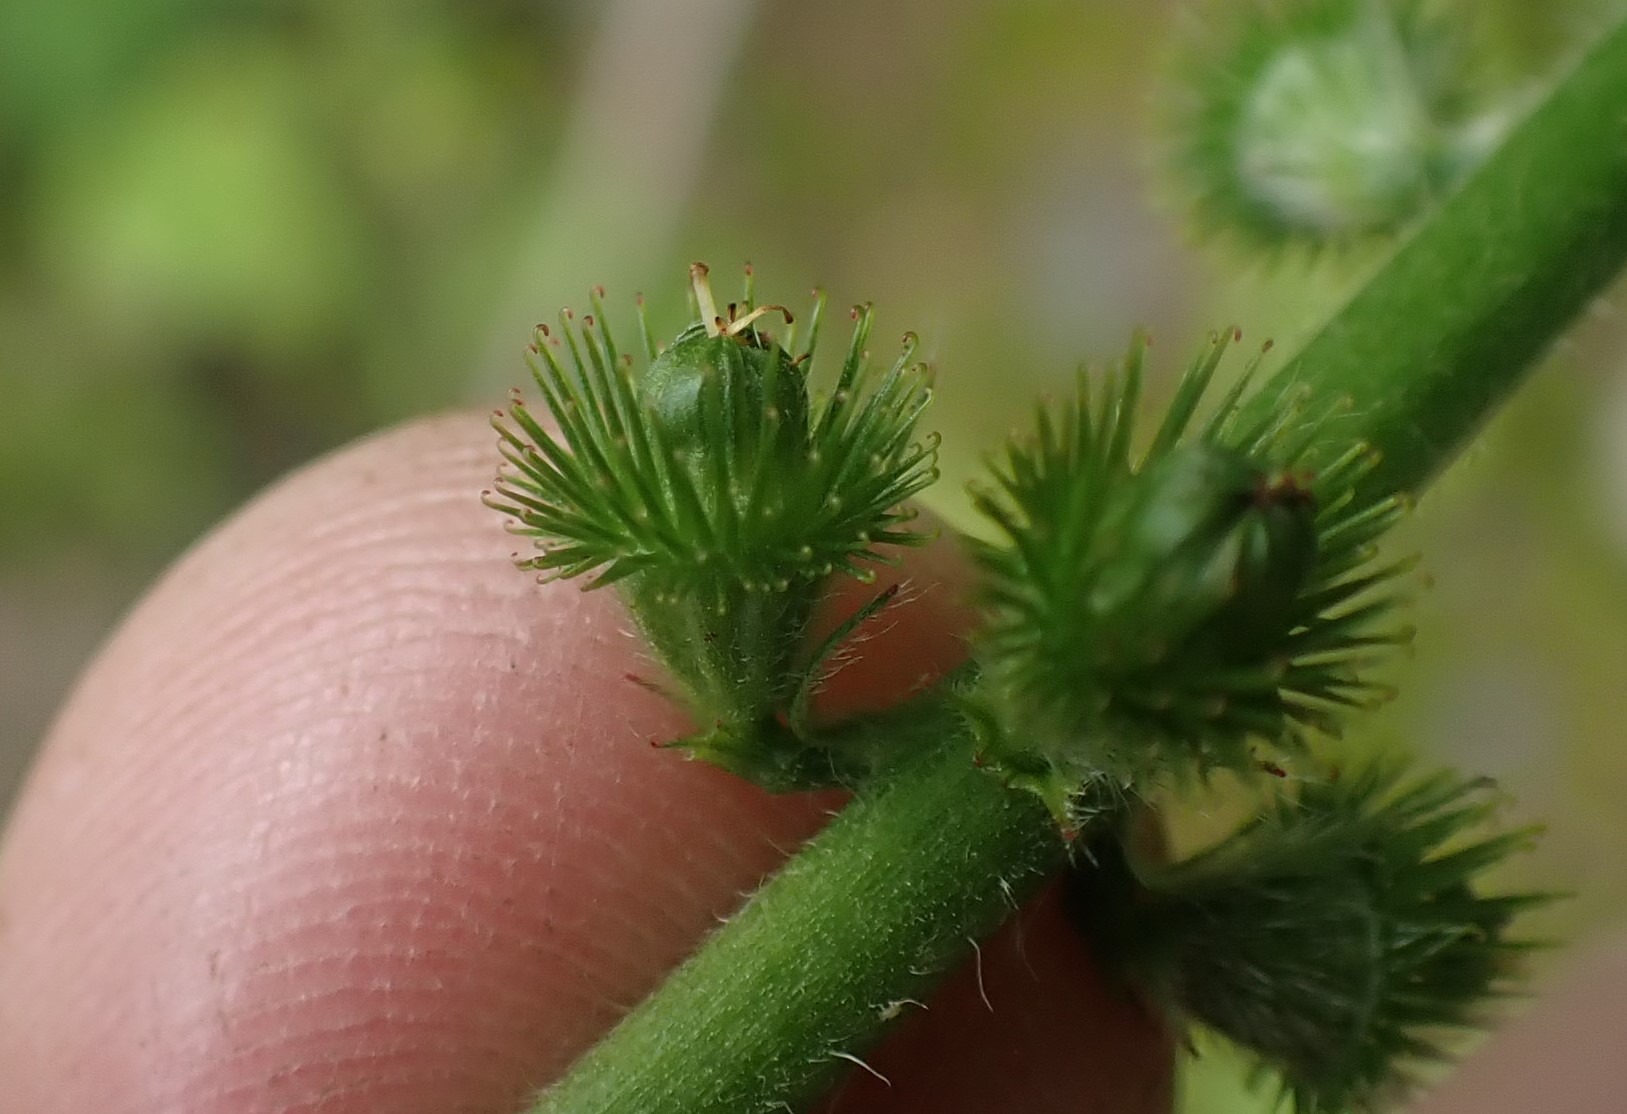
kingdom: Plantae
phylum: Tracheophyta
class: Magnoliopsida
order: Rosales
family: Rosaceae
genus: Agrimonia
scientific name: Agrimonia eupatoria
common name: Almindelig agermåne
